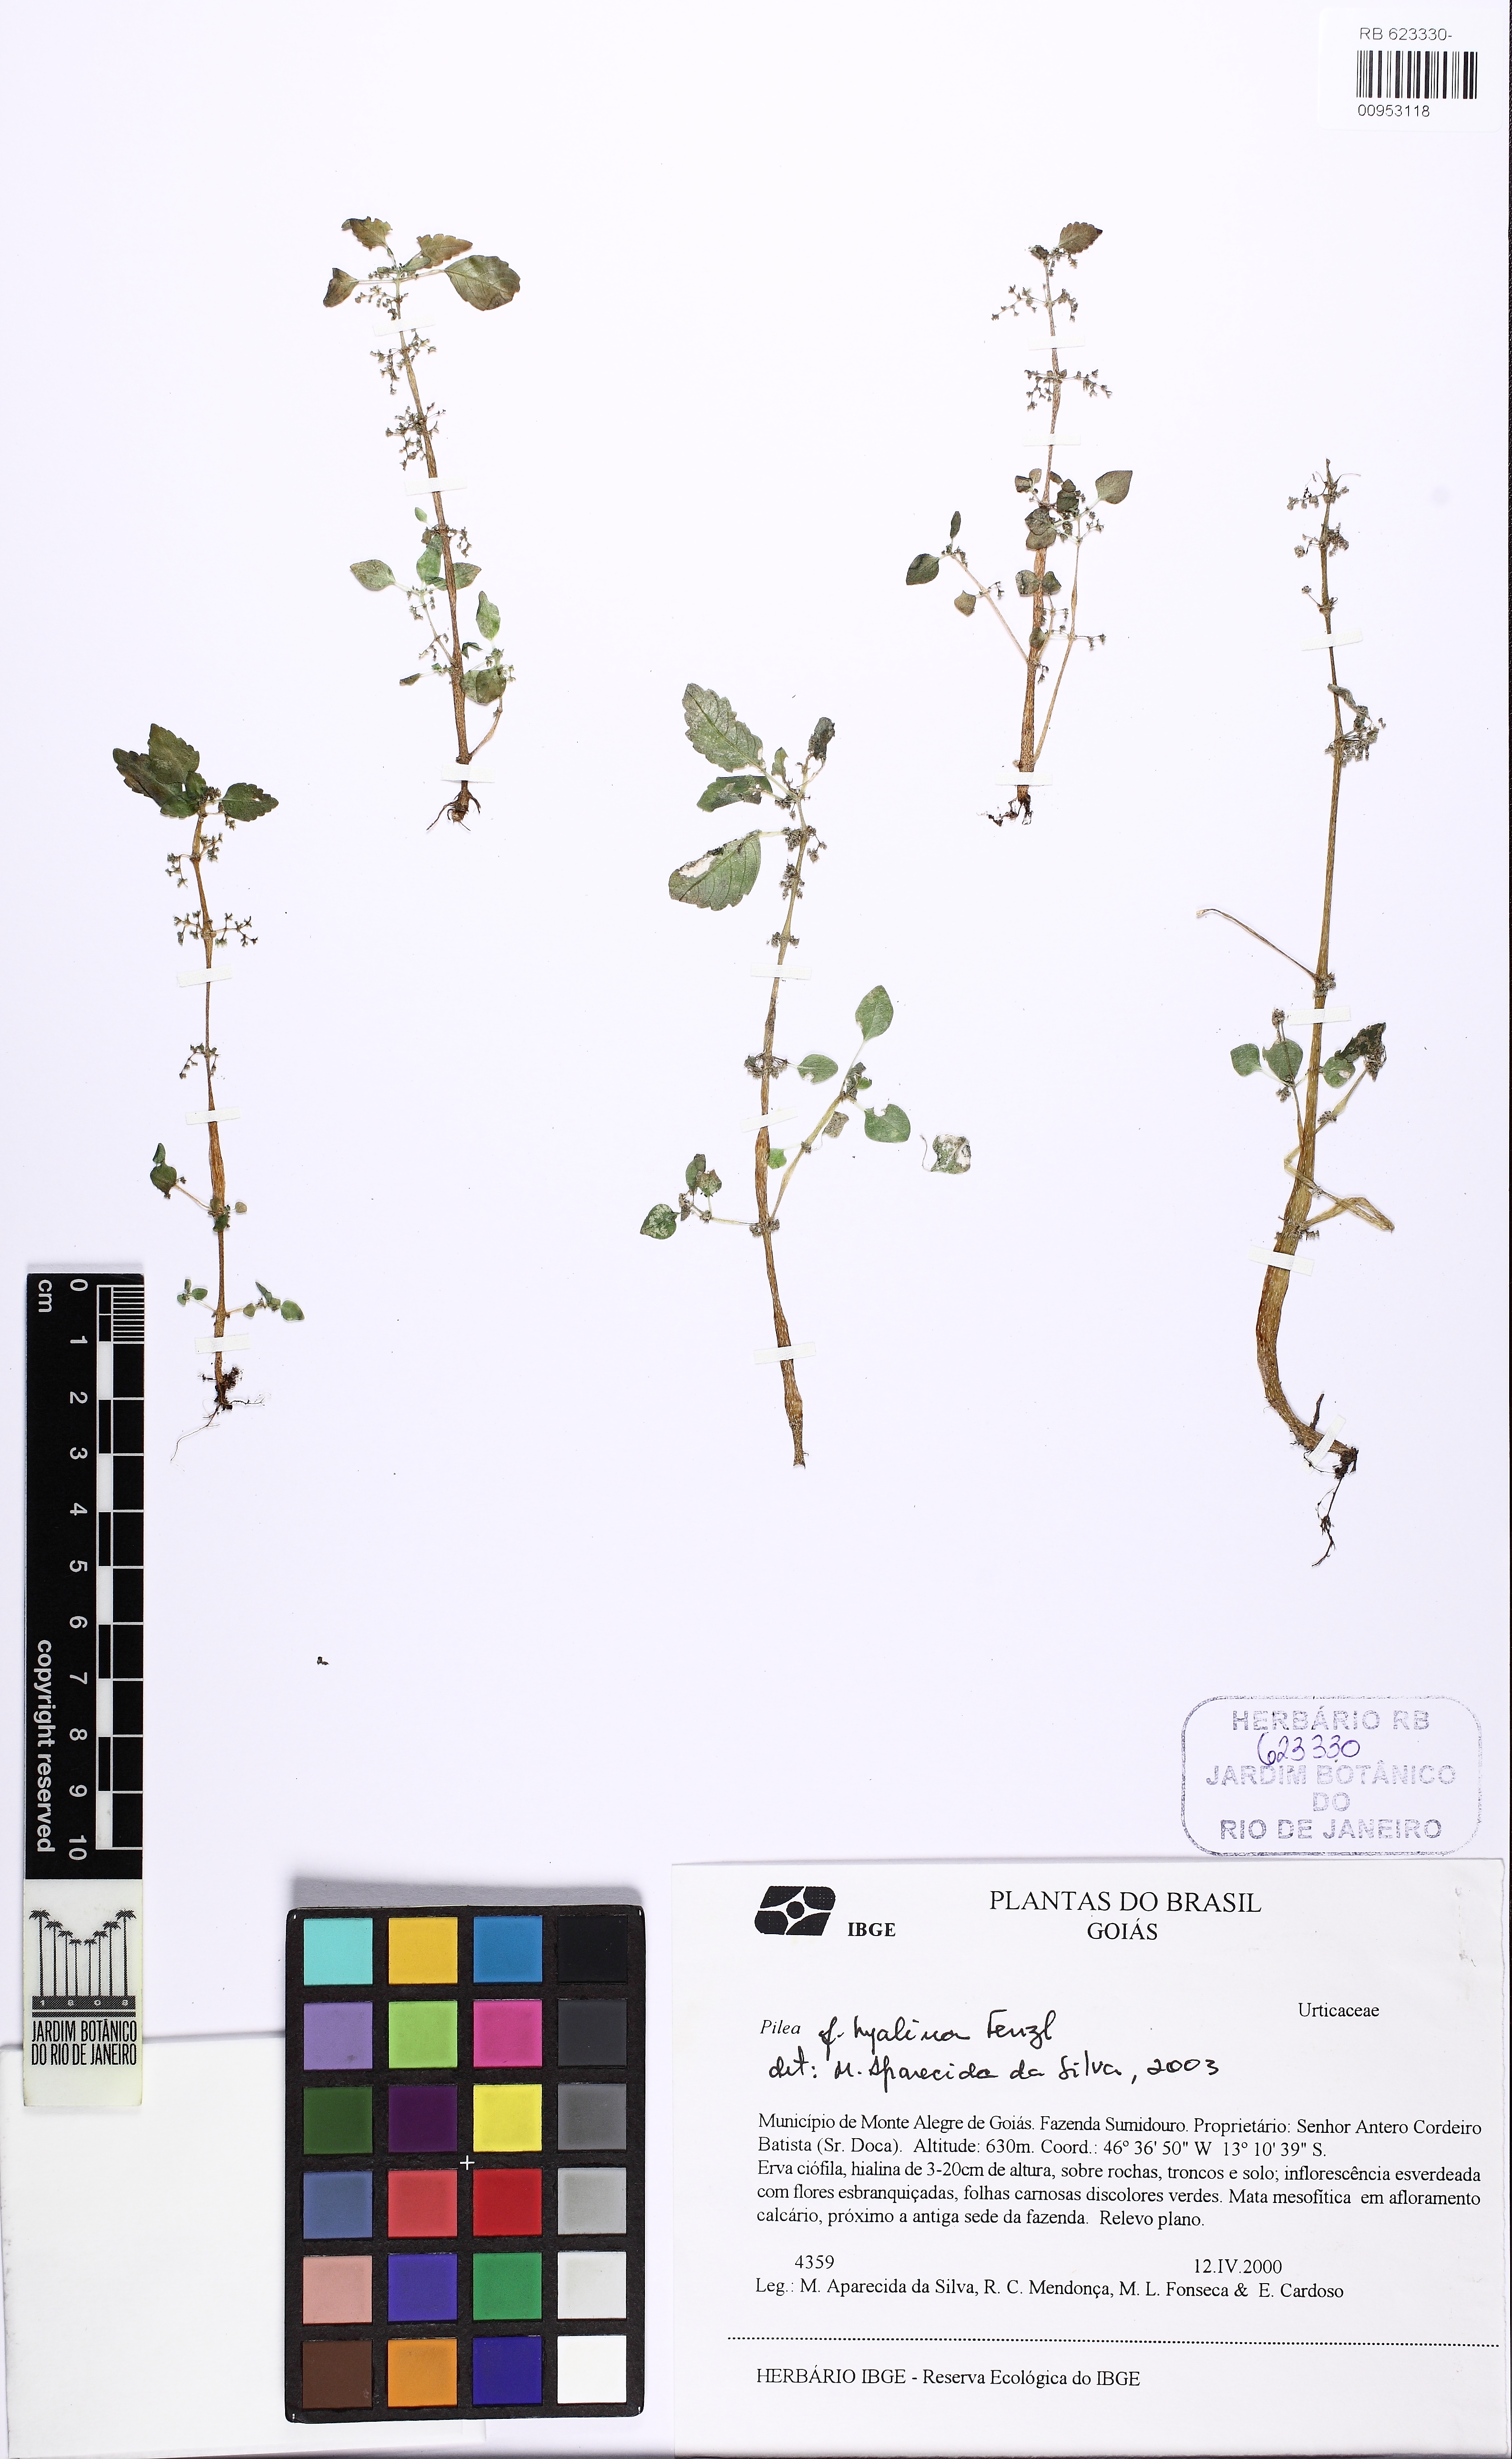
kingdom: Plantae
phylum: Tracheophyta
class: Magnoliopsida
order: Rosales
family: Urticaceae
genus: Pilea
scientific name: Pilea brasiliensis
